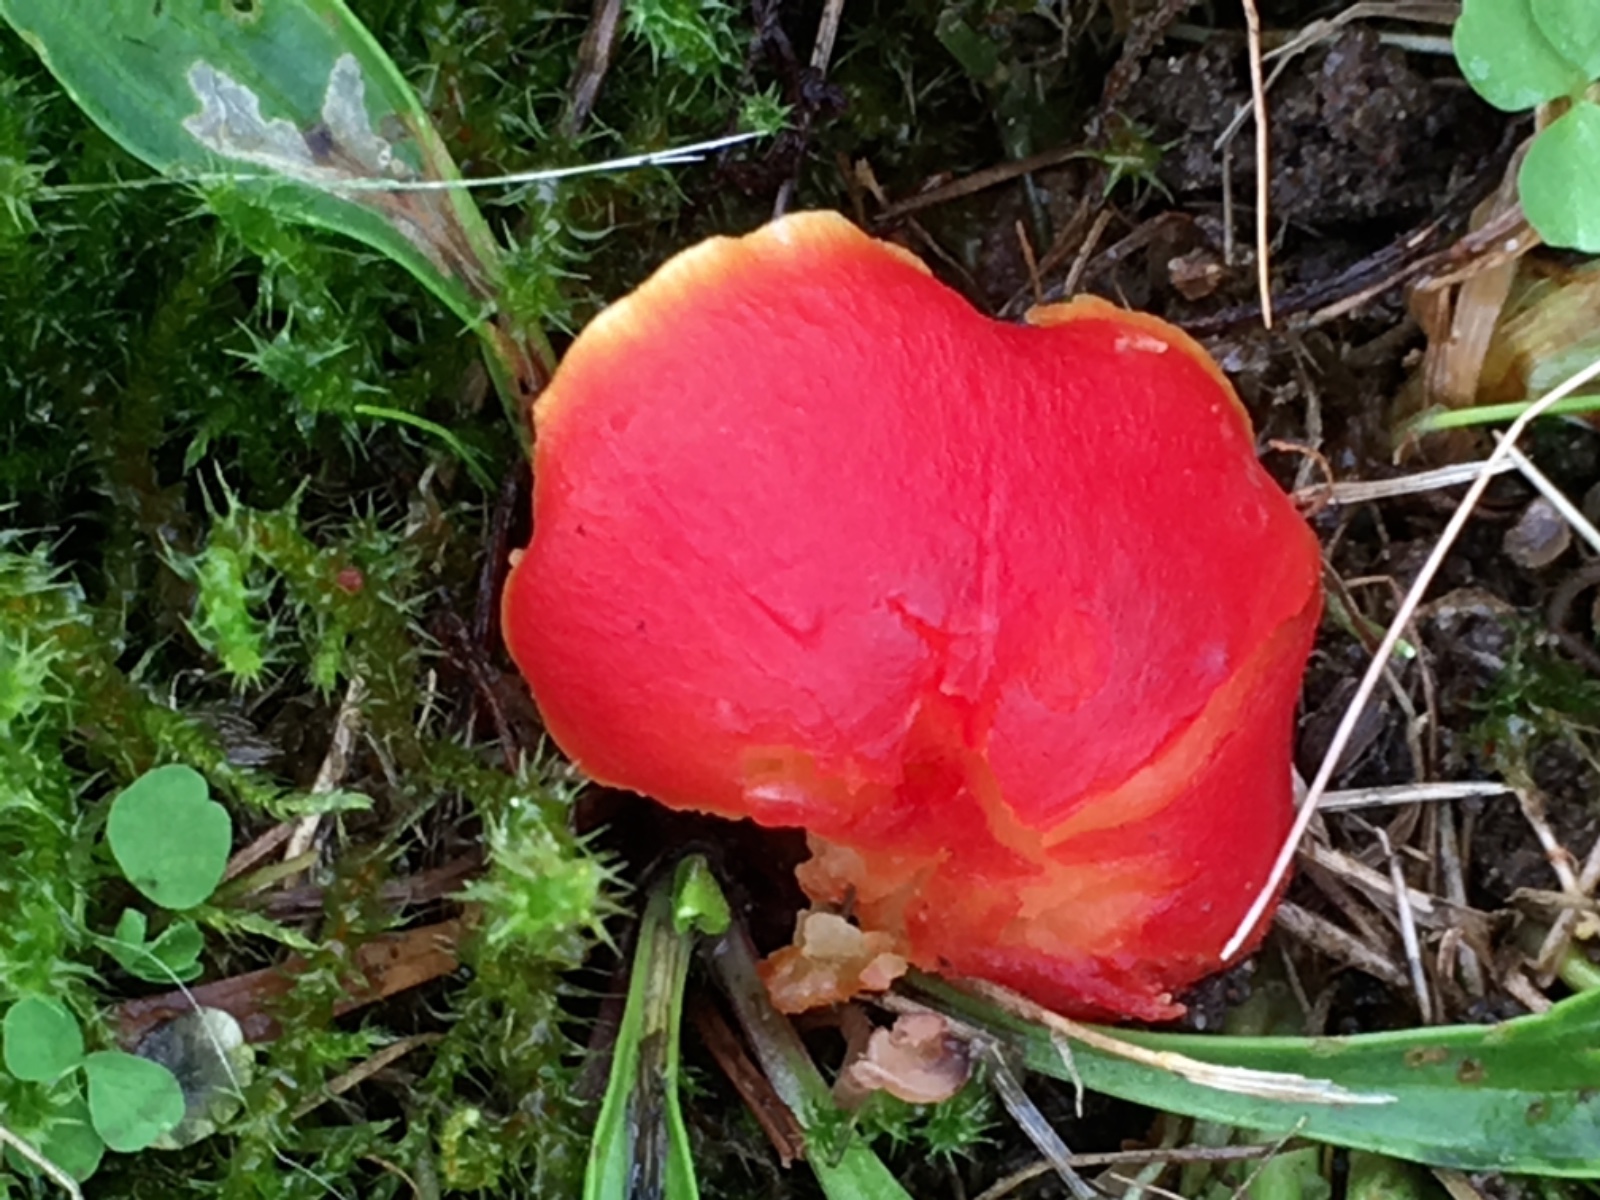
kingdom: Fungi
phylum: Basidiomycota
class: Agaricomycetes
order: Agaricales
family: Hygrophoraceae
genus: Hygrocybe
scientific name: Hygrocybe
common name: vokshat
